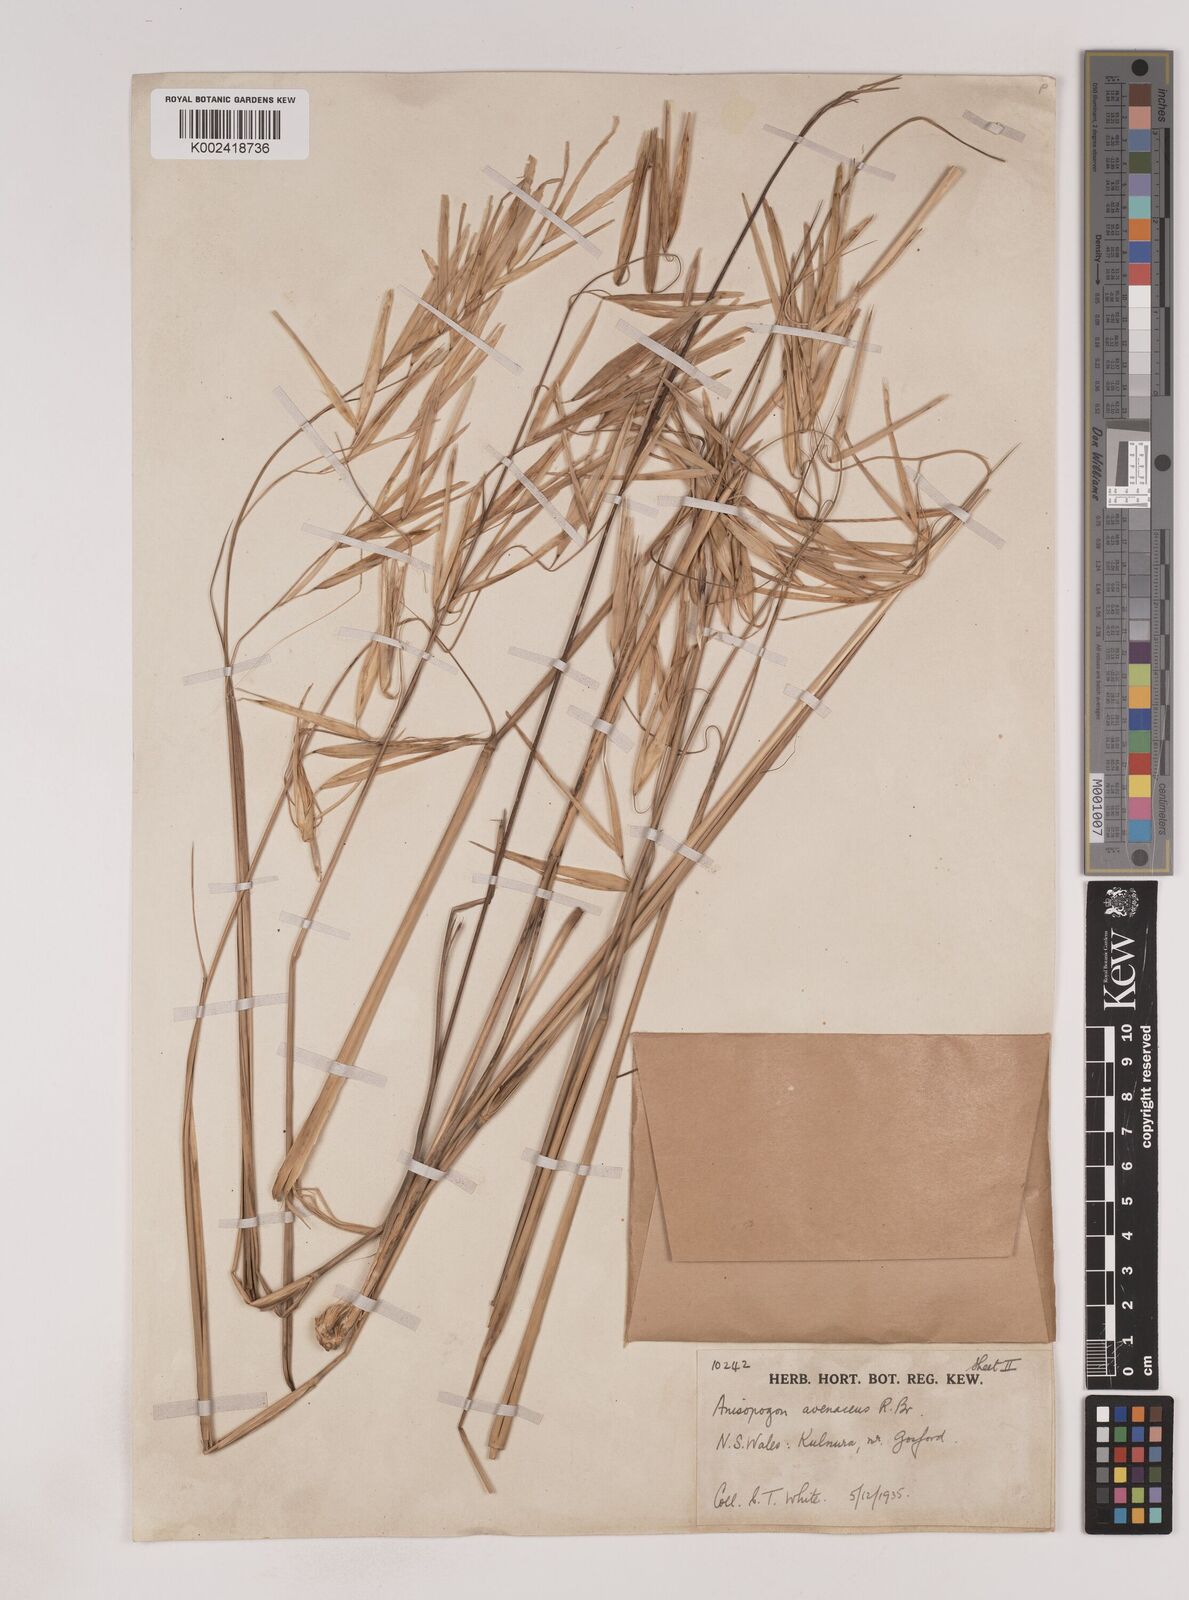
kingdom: Plantae
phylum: Tracheophyta
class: Liliopsida
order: Poales
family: Poaceae
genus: Anisopogon
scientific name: Anisopogon avenaceus
